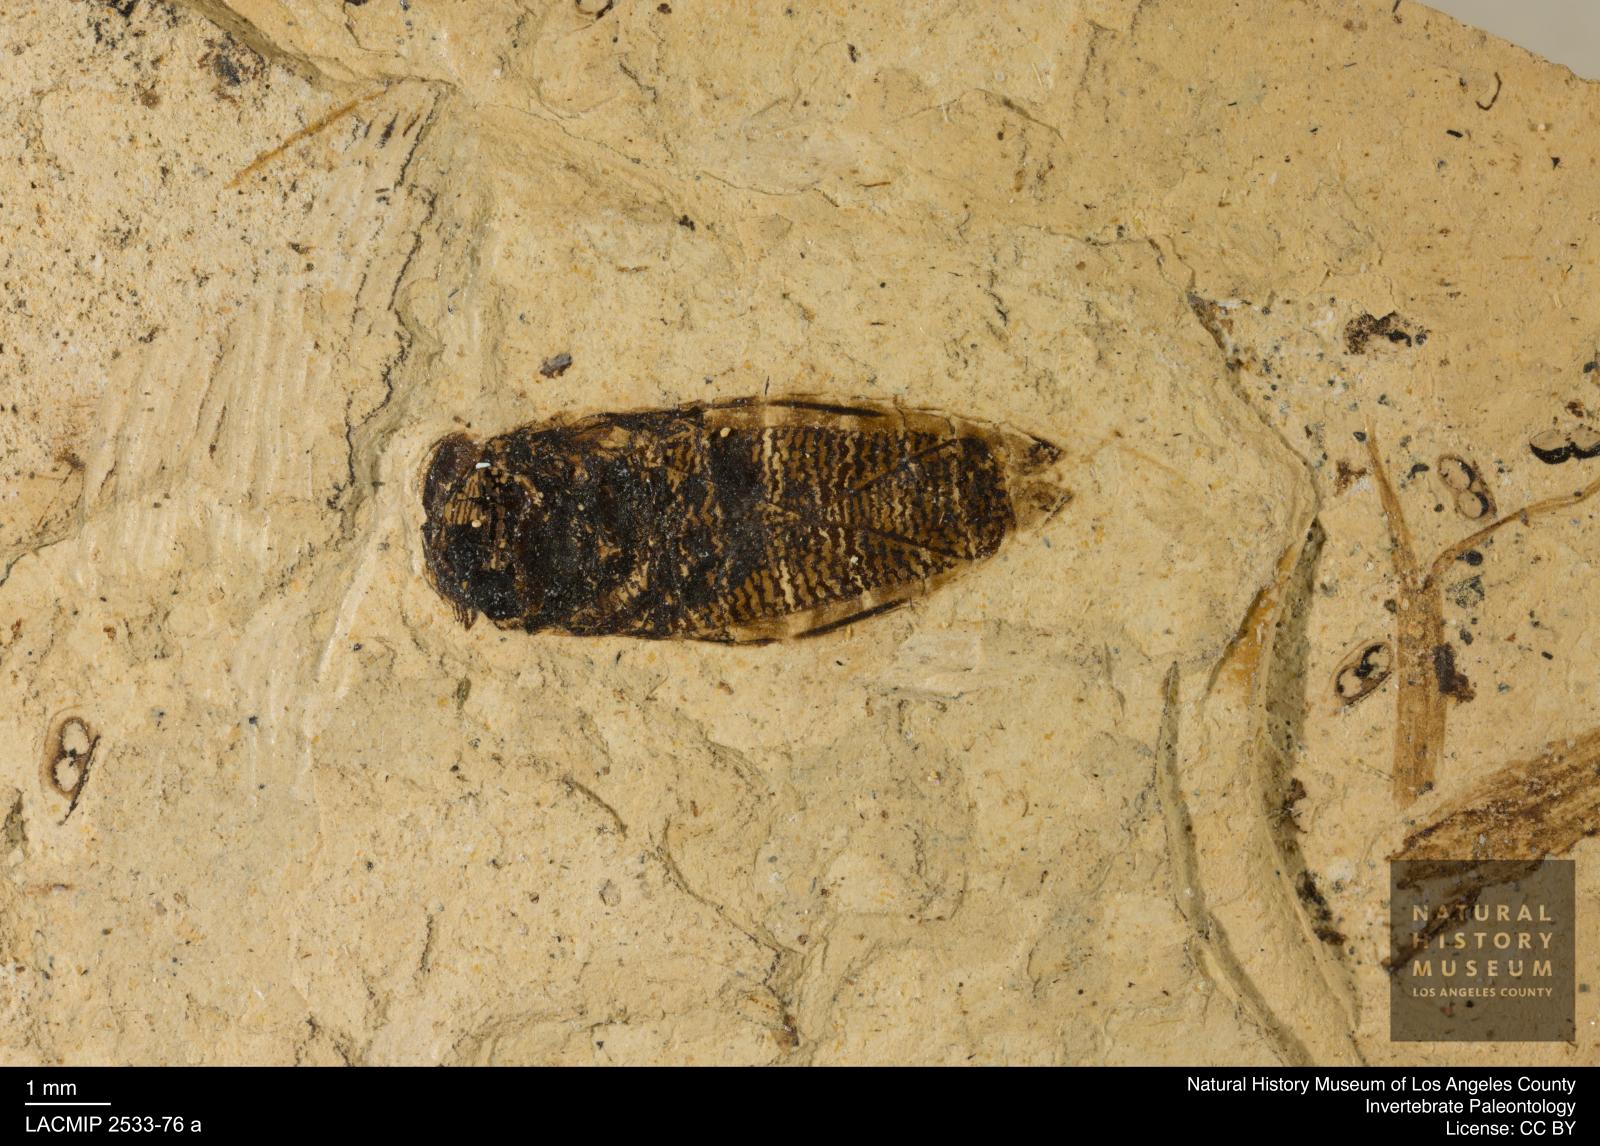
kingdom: Animalia
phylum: Arthropoda
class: Insecta
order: Hemiptera
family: Corixidae
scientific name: Corixidae
